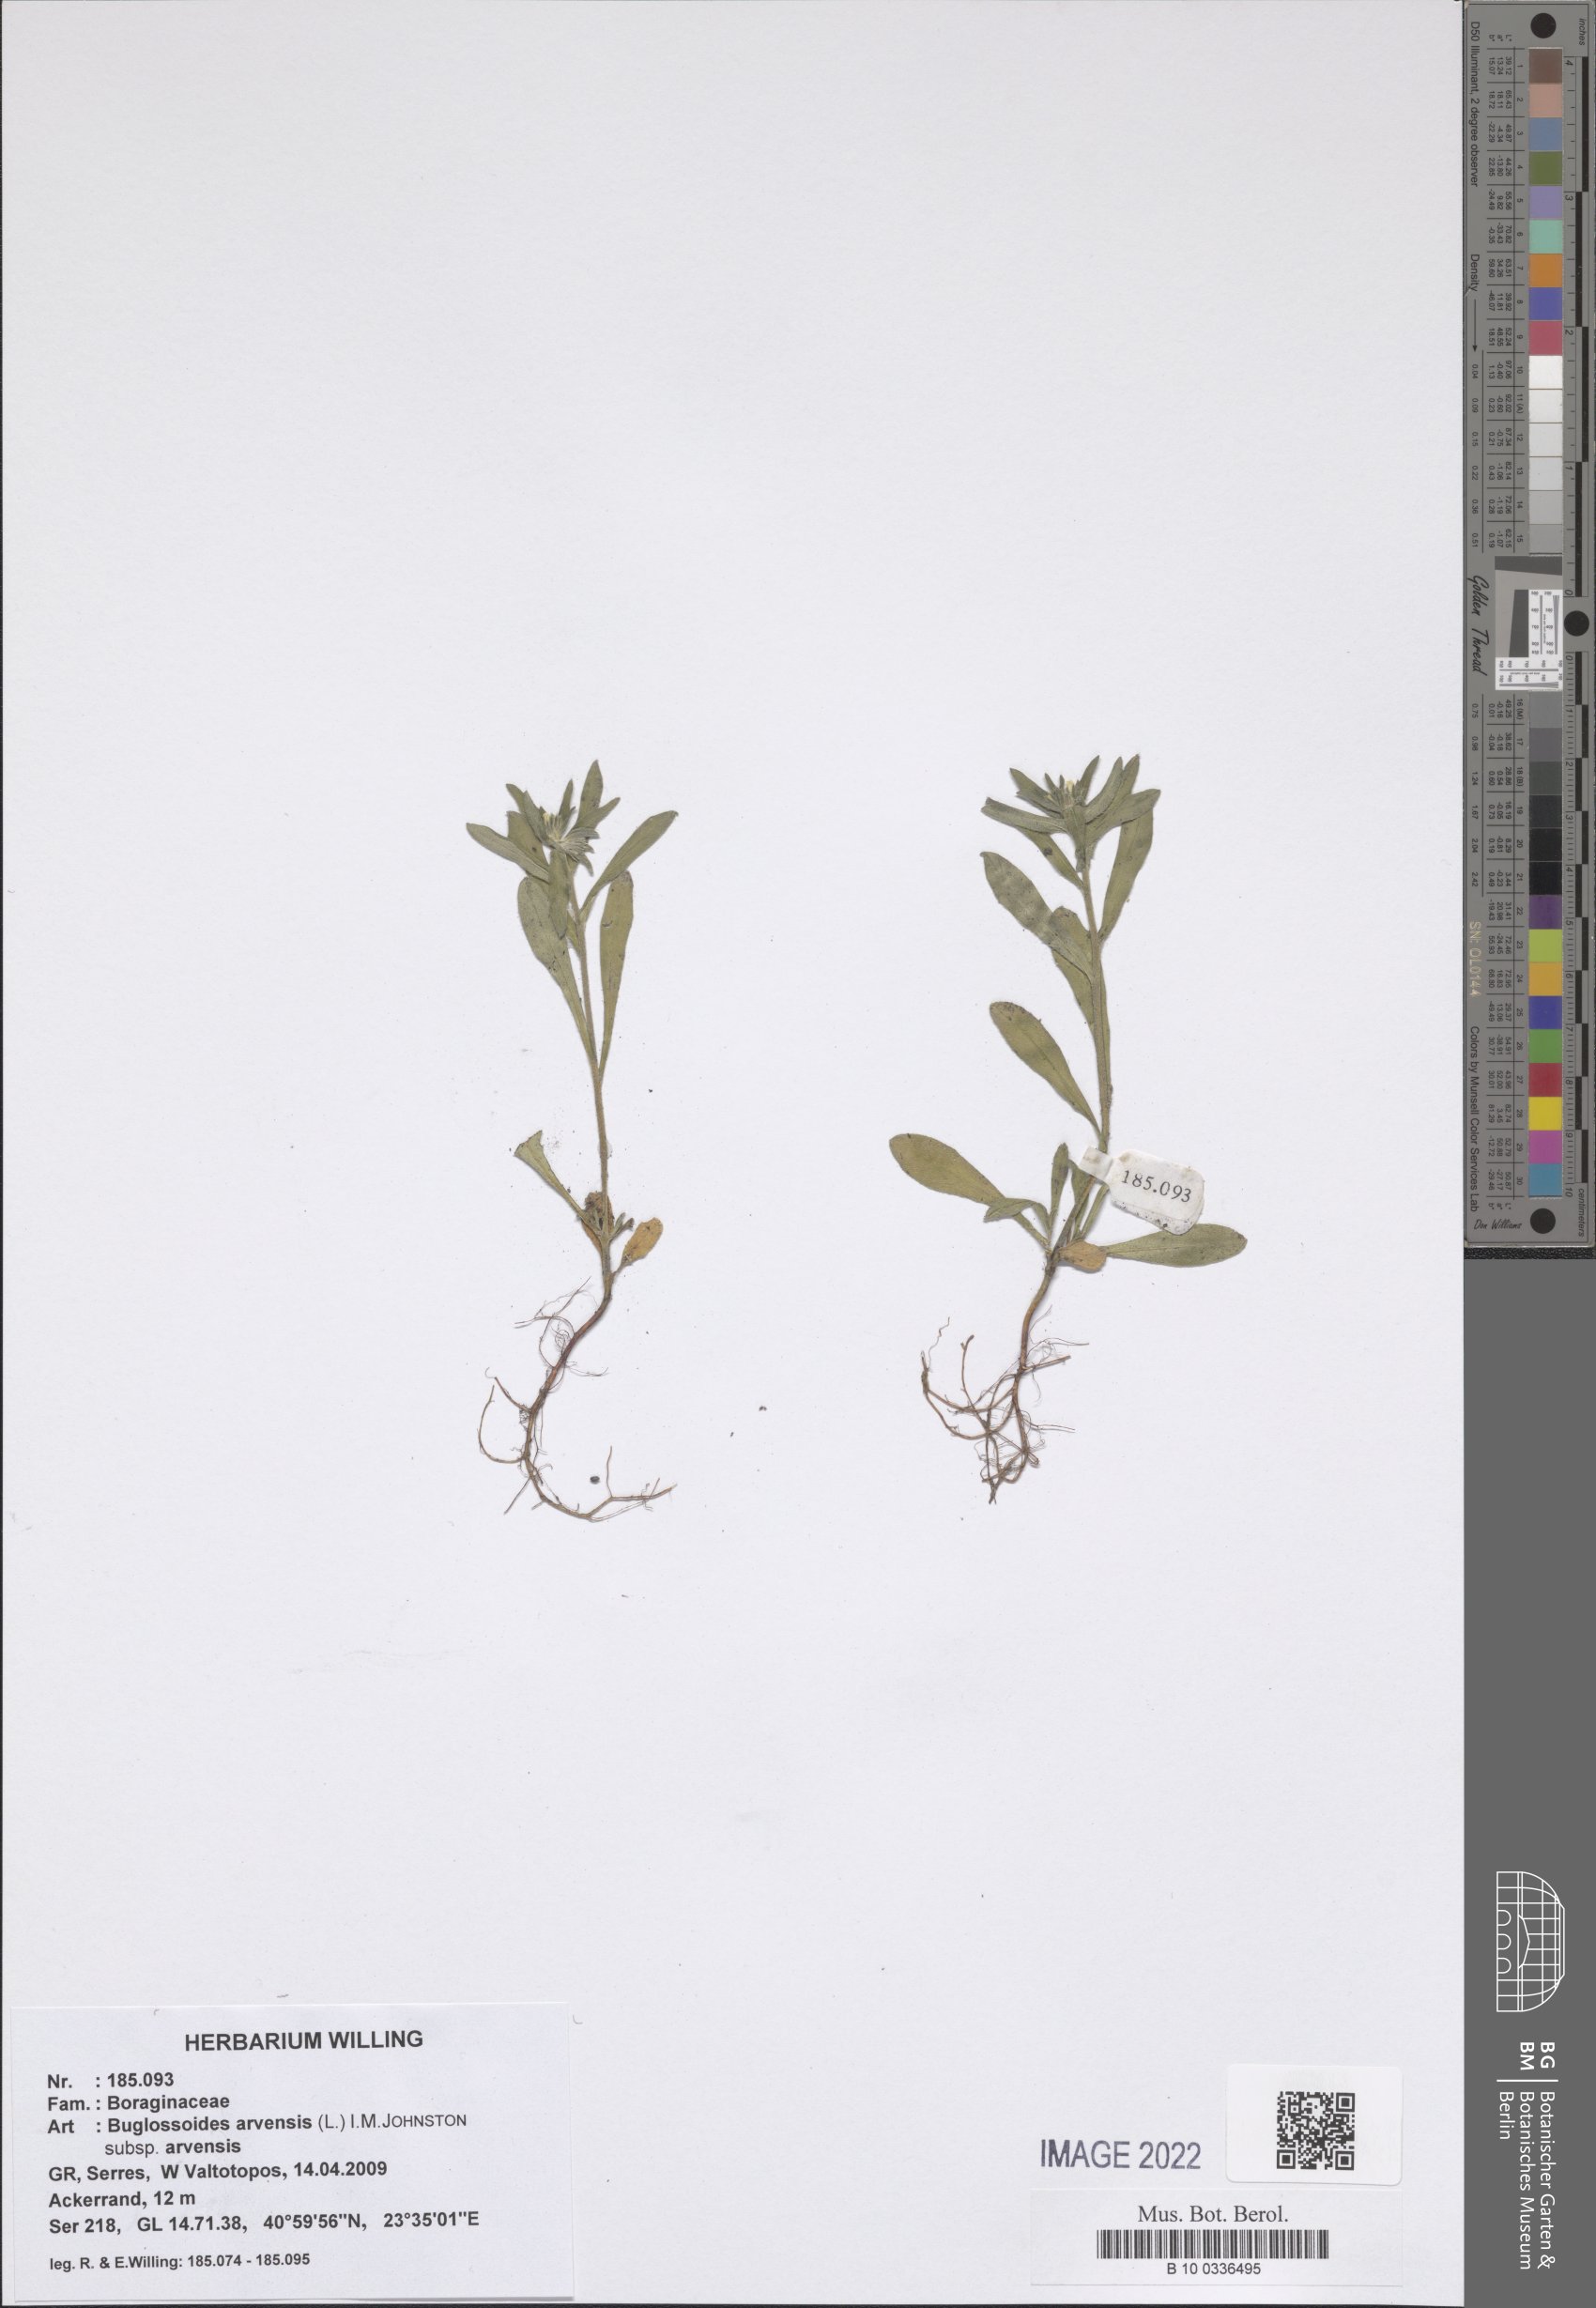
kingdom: Plantae
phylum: Tracheophyta
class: Magnoliopsida
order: Boraginales
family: Boraginaceae
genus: Buglossoides
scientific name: Buglossoides arvensis
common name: Corn gromwell
